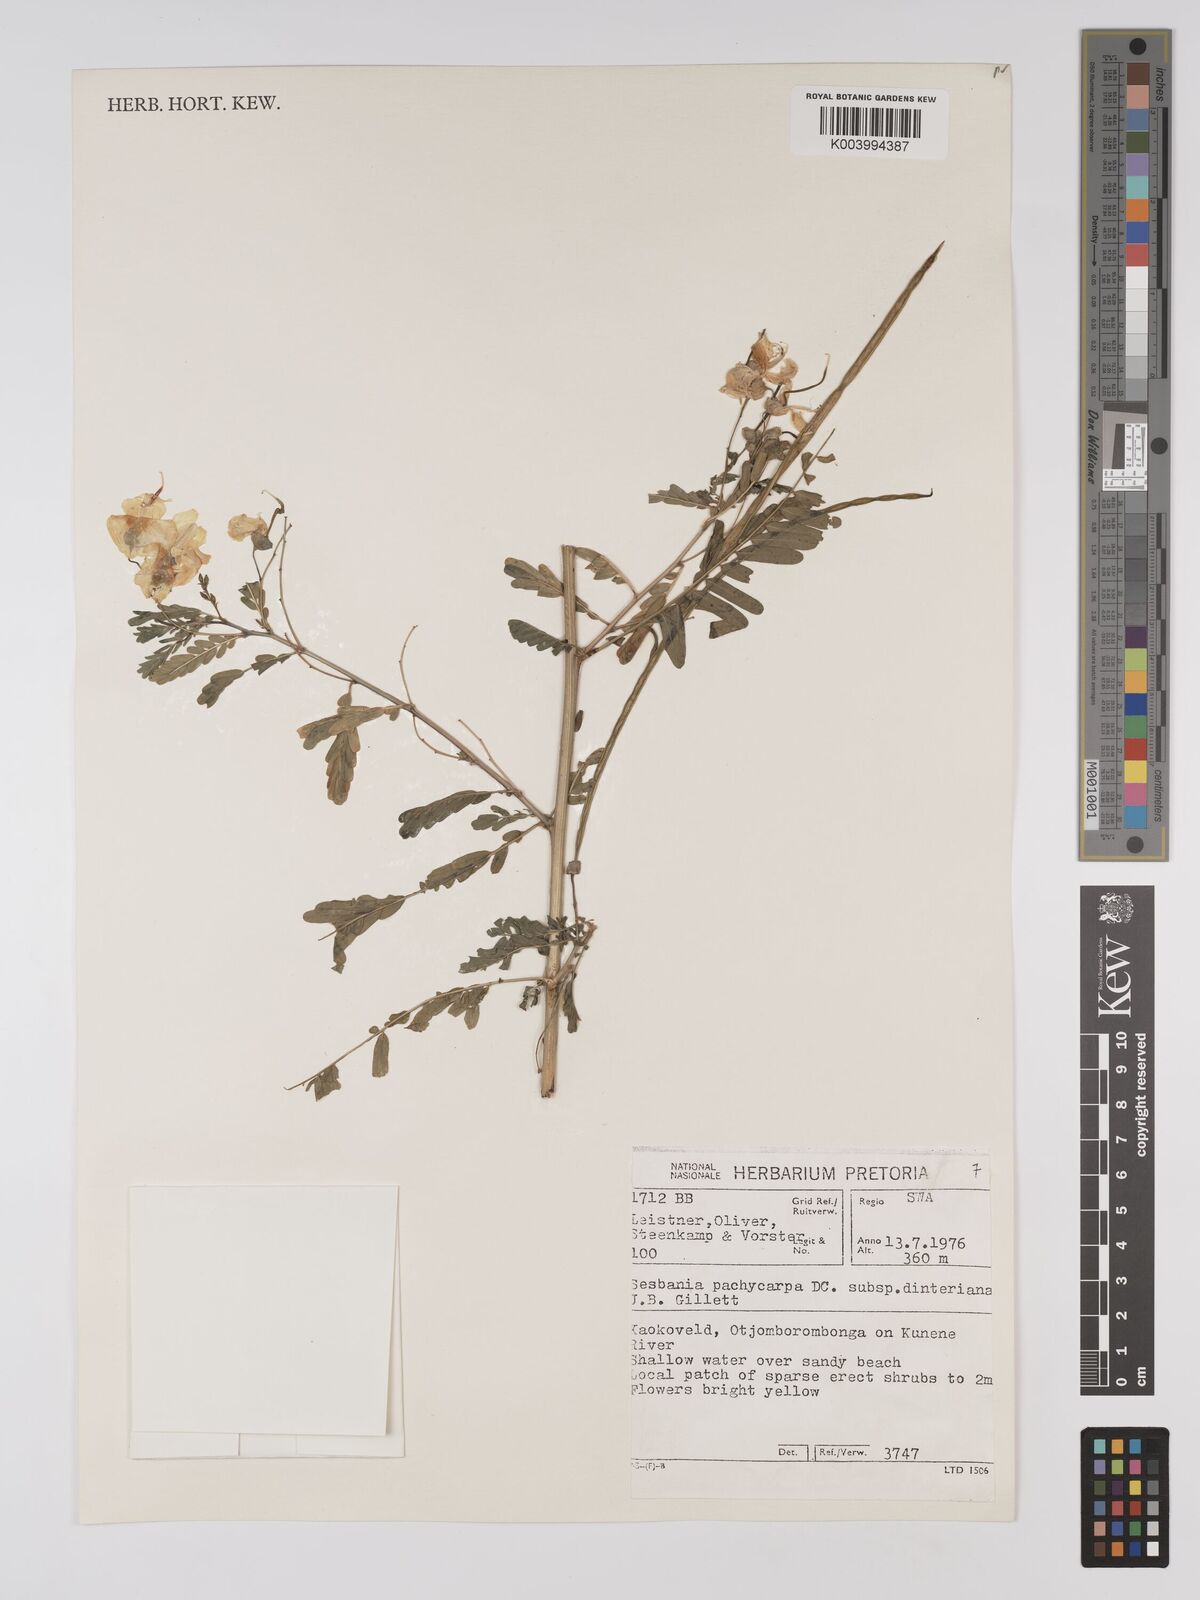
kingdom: Plantae
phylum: Tracheophyta
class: Magnoliopsida
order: Fabales
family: Fabaceae
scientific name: Fabaceae
